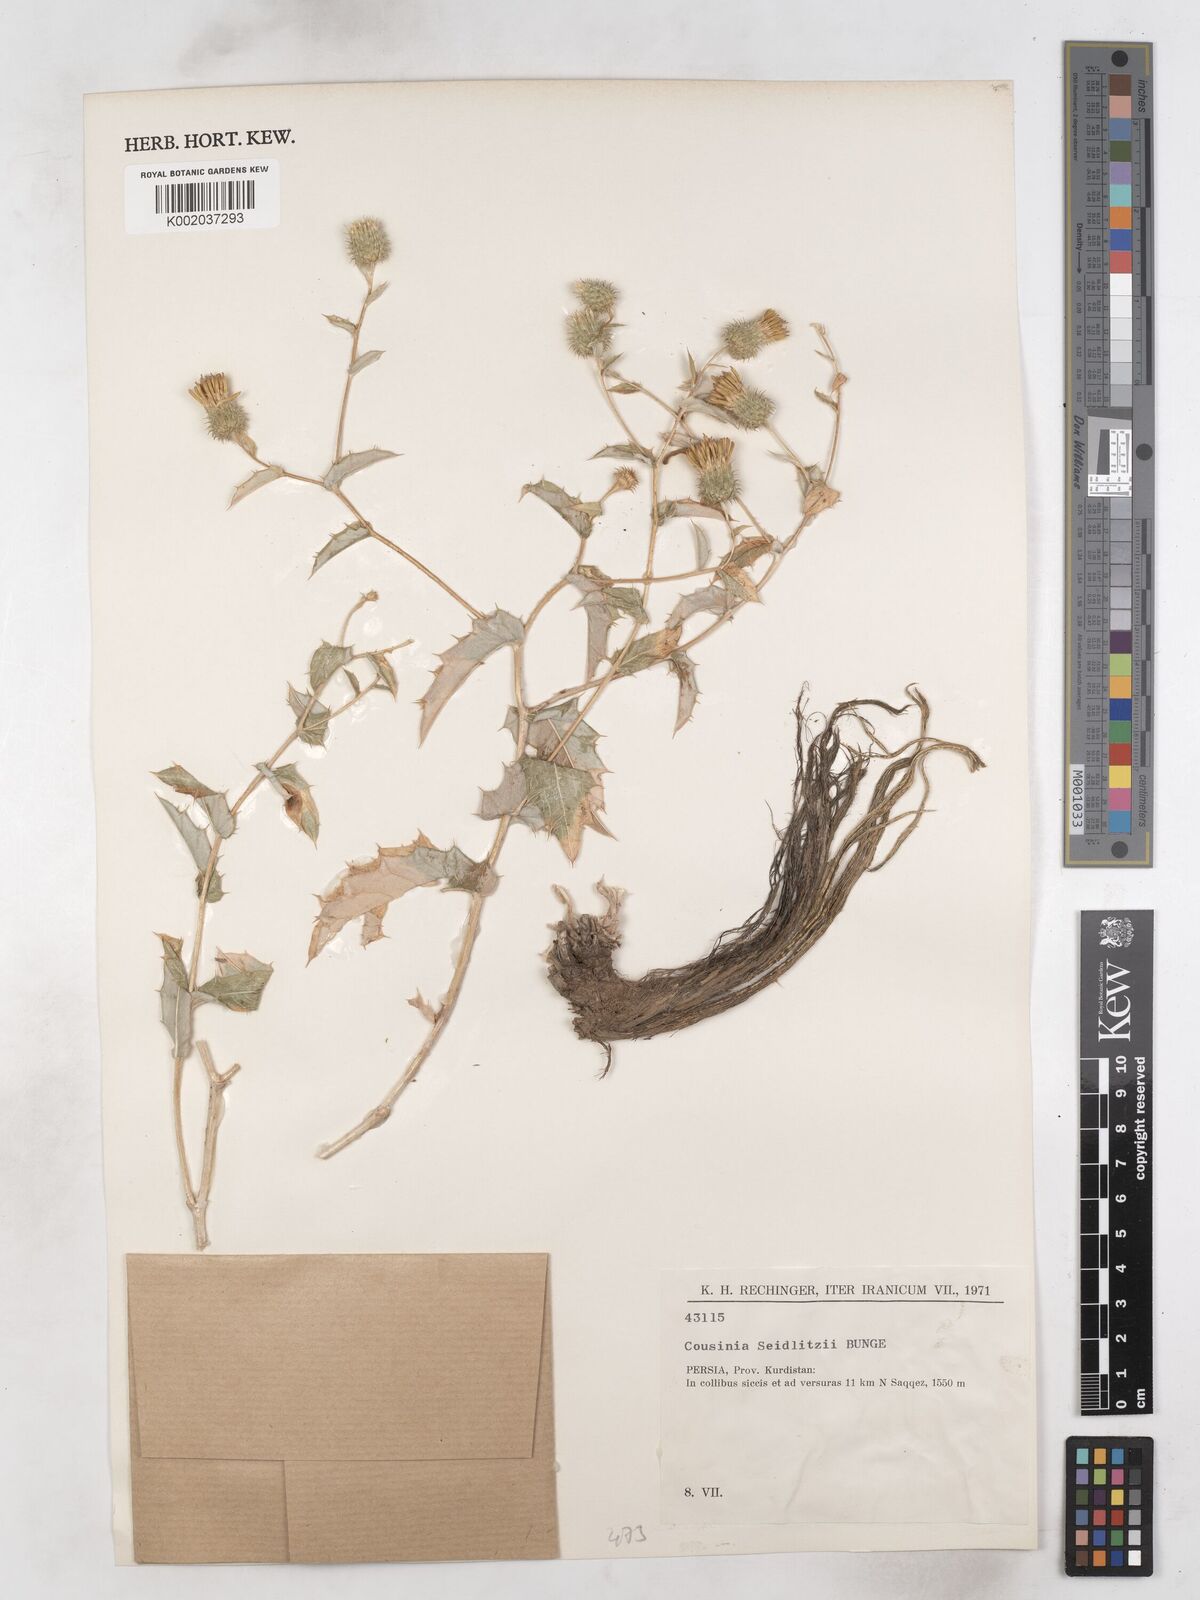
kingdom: Plantae
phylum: Tracheophyta
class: Magnoliopsida
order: Asterales
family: Asteraceae
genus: Cousinia
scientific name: Cousinia seidlitzii
